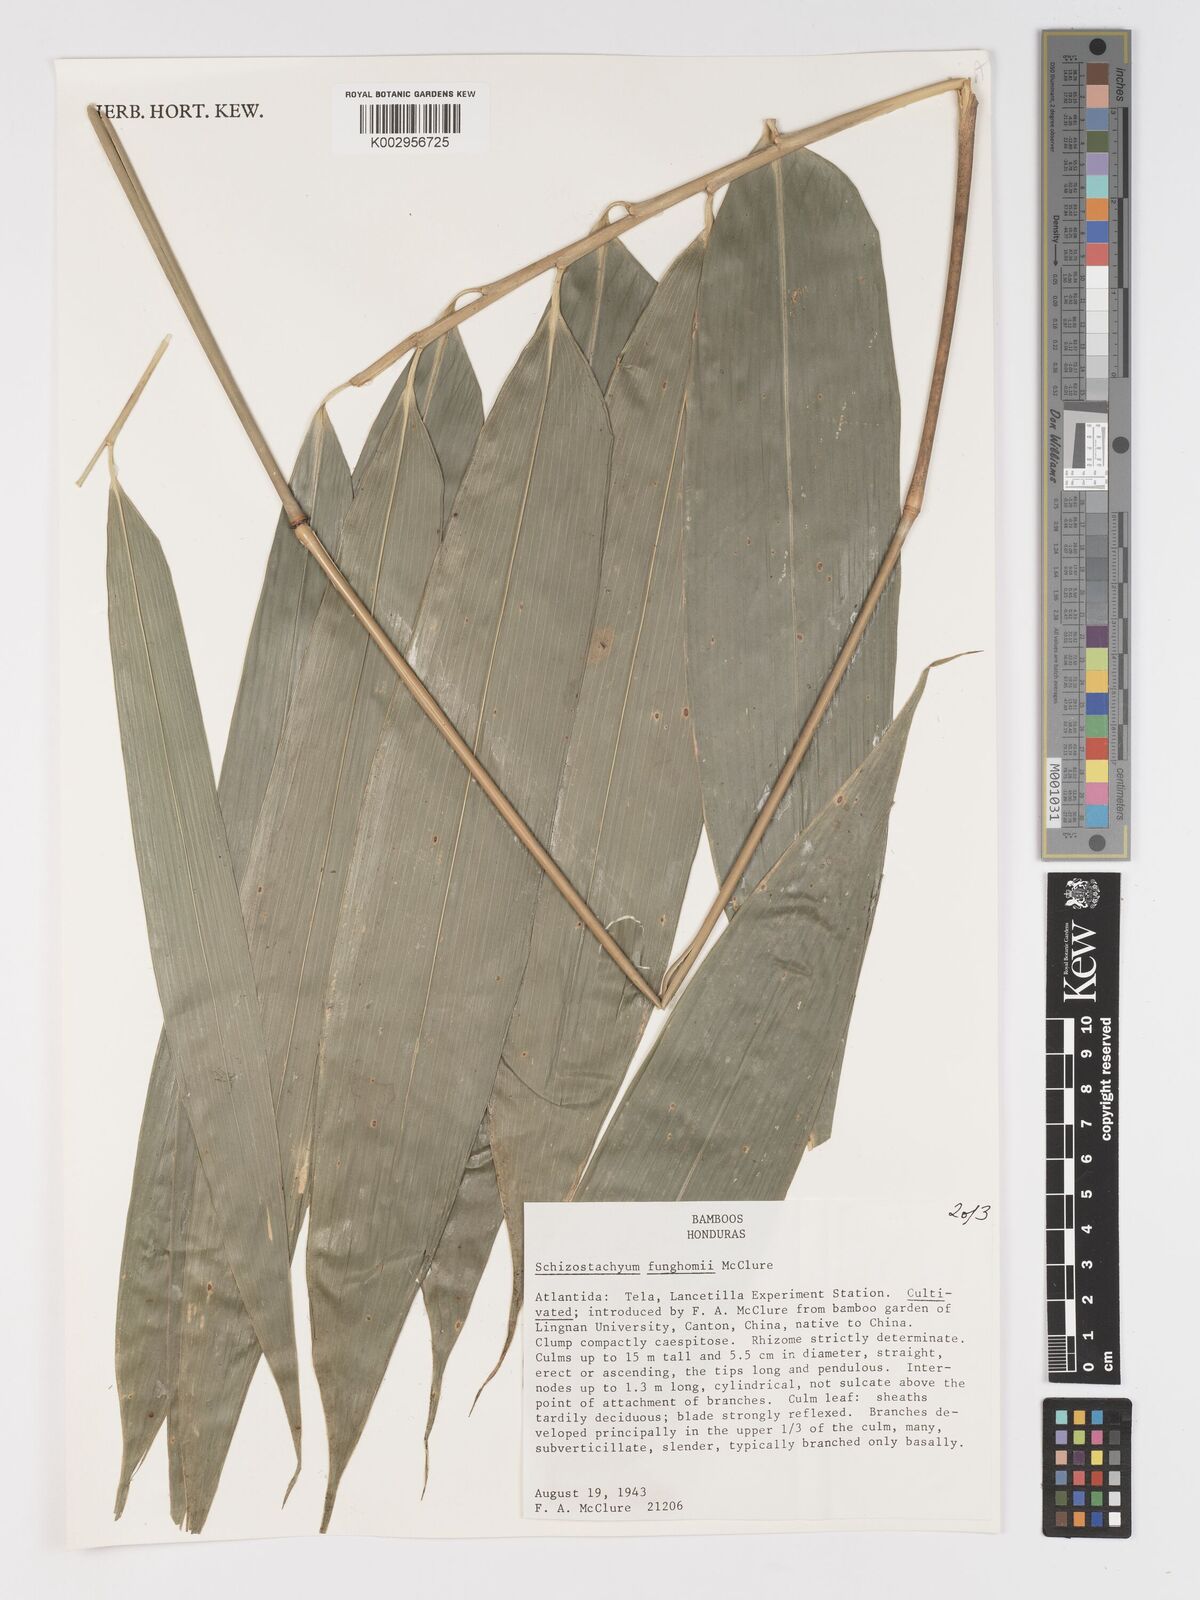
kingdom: Plantae
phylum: Tracheophyta
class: Liliopsida
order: Poales
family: Poaceae
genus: Schizostachyum
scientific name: Schizostachyum funghomii
